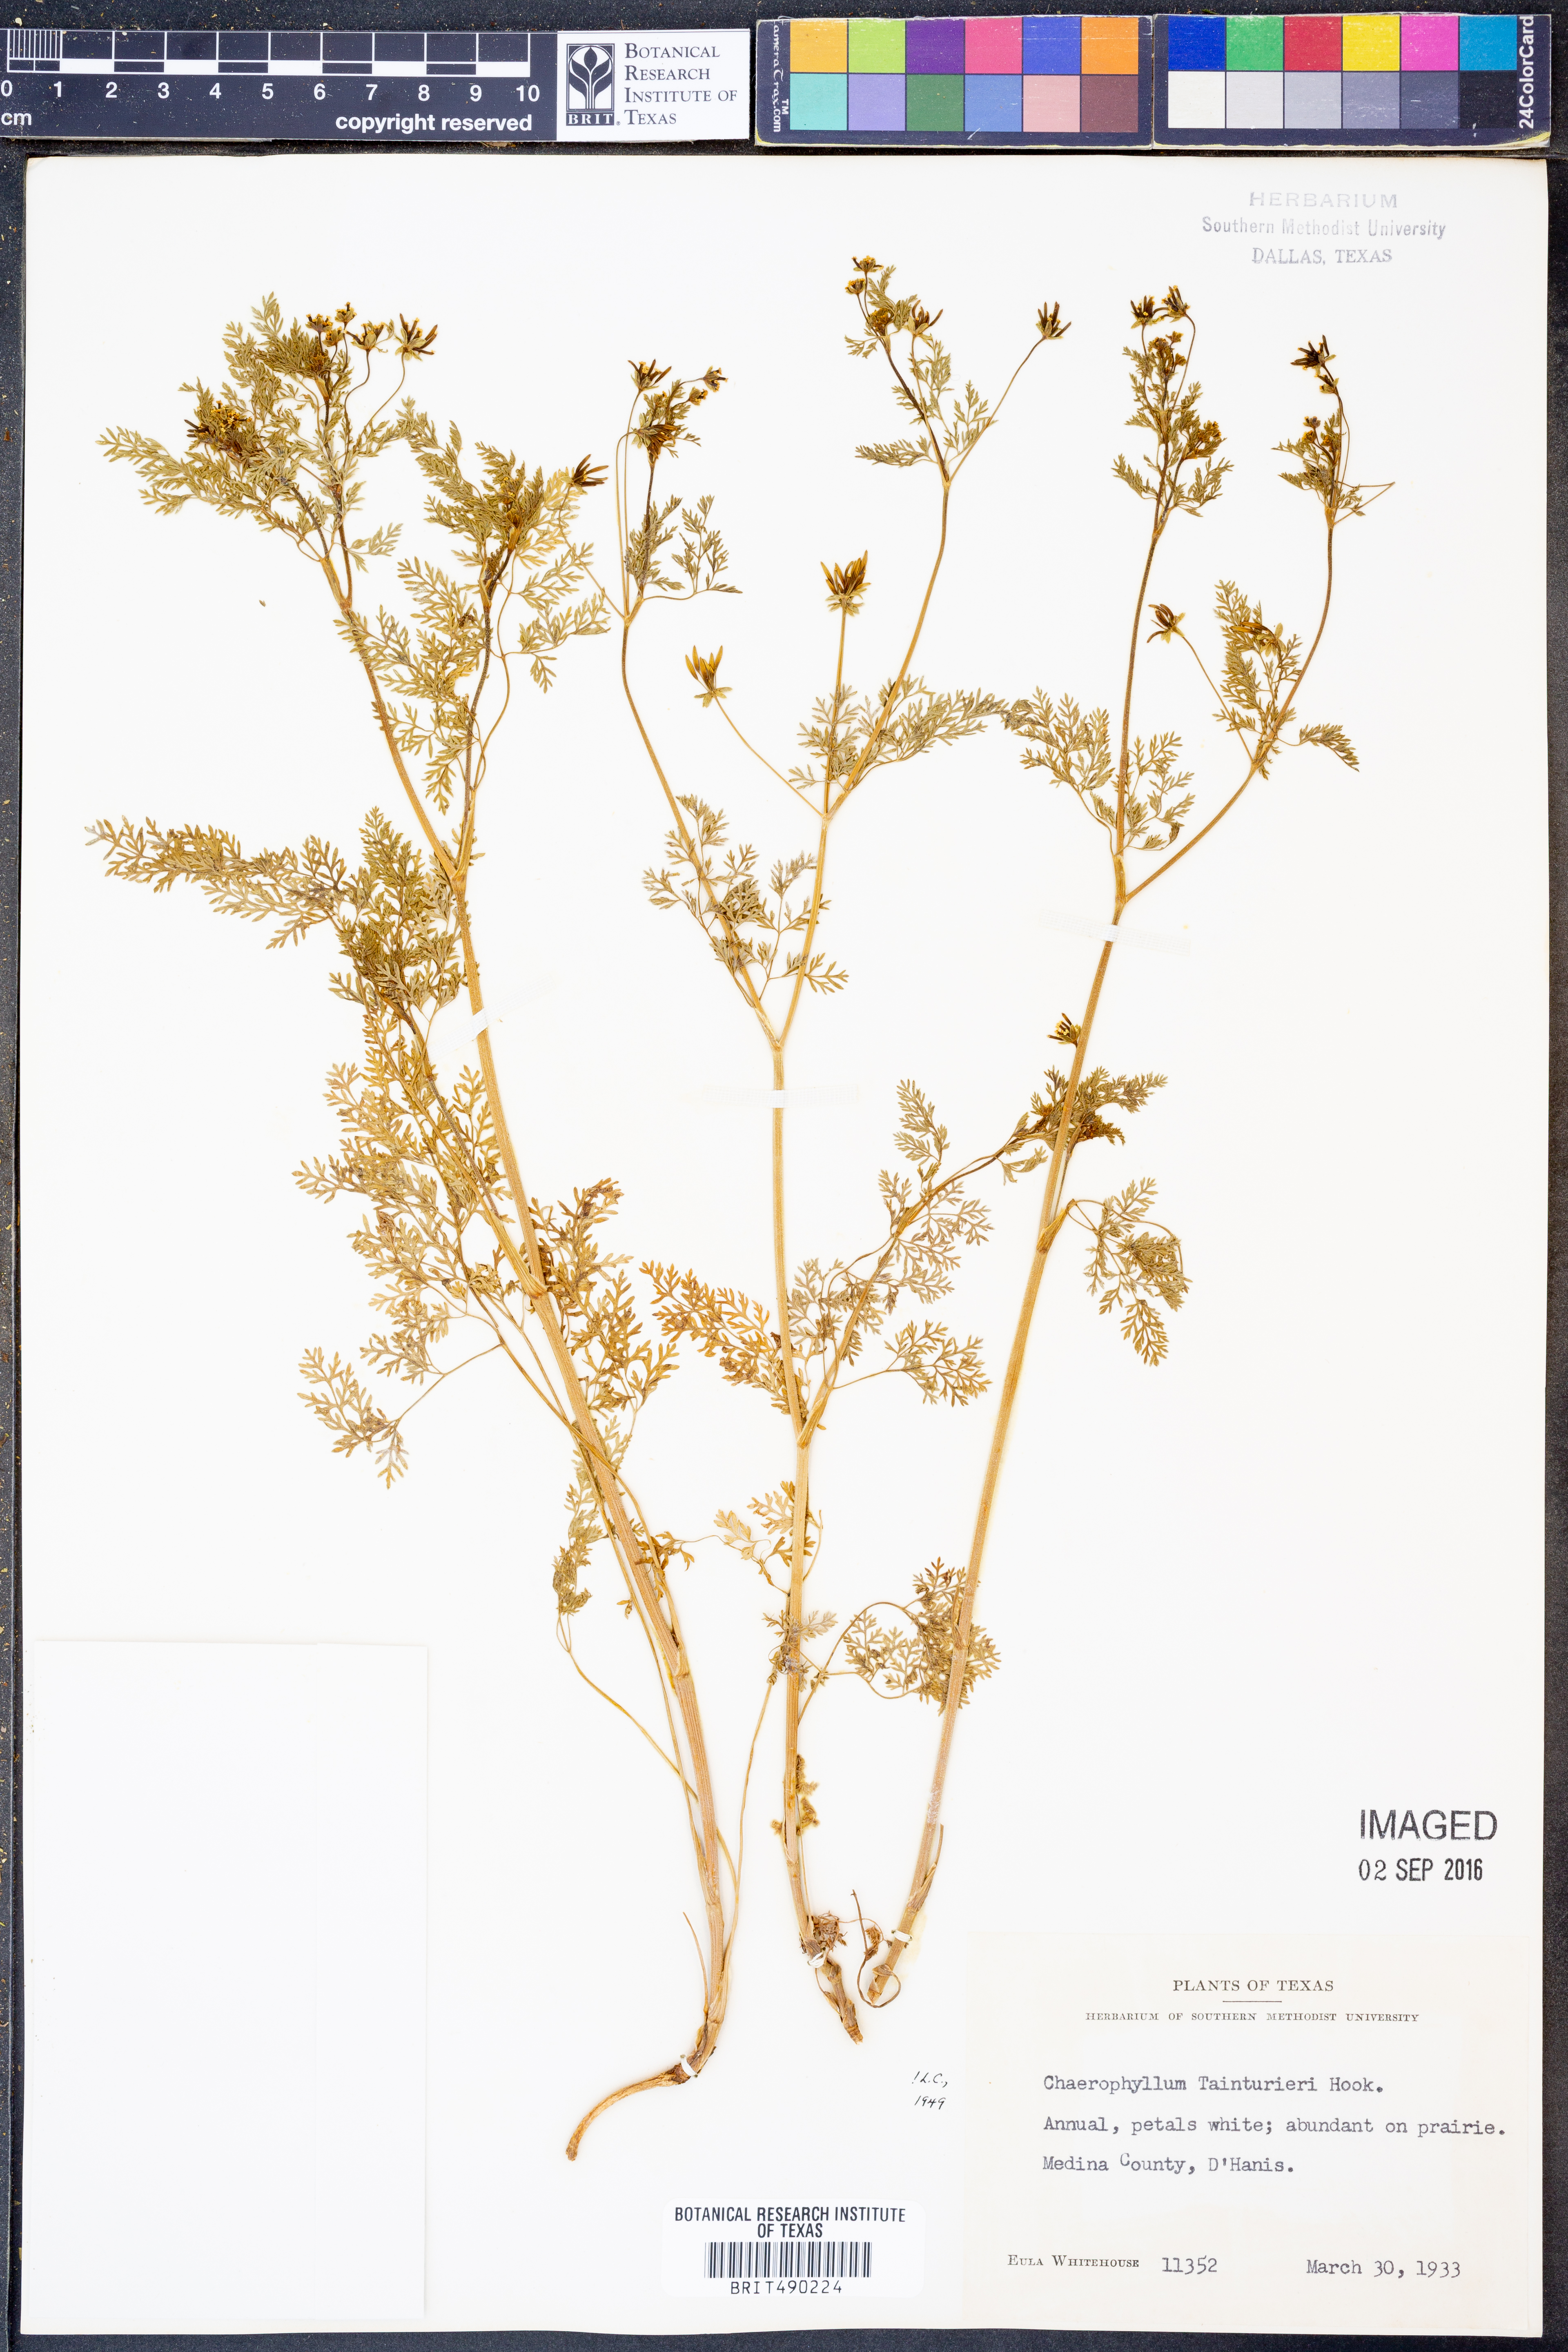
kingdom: Plantae
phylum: Tracheophyta
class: Magnoliopsida
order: Apiales
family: Apiaceae
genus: Chaerophyllum
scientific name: Chaerophyllum tainturieri
